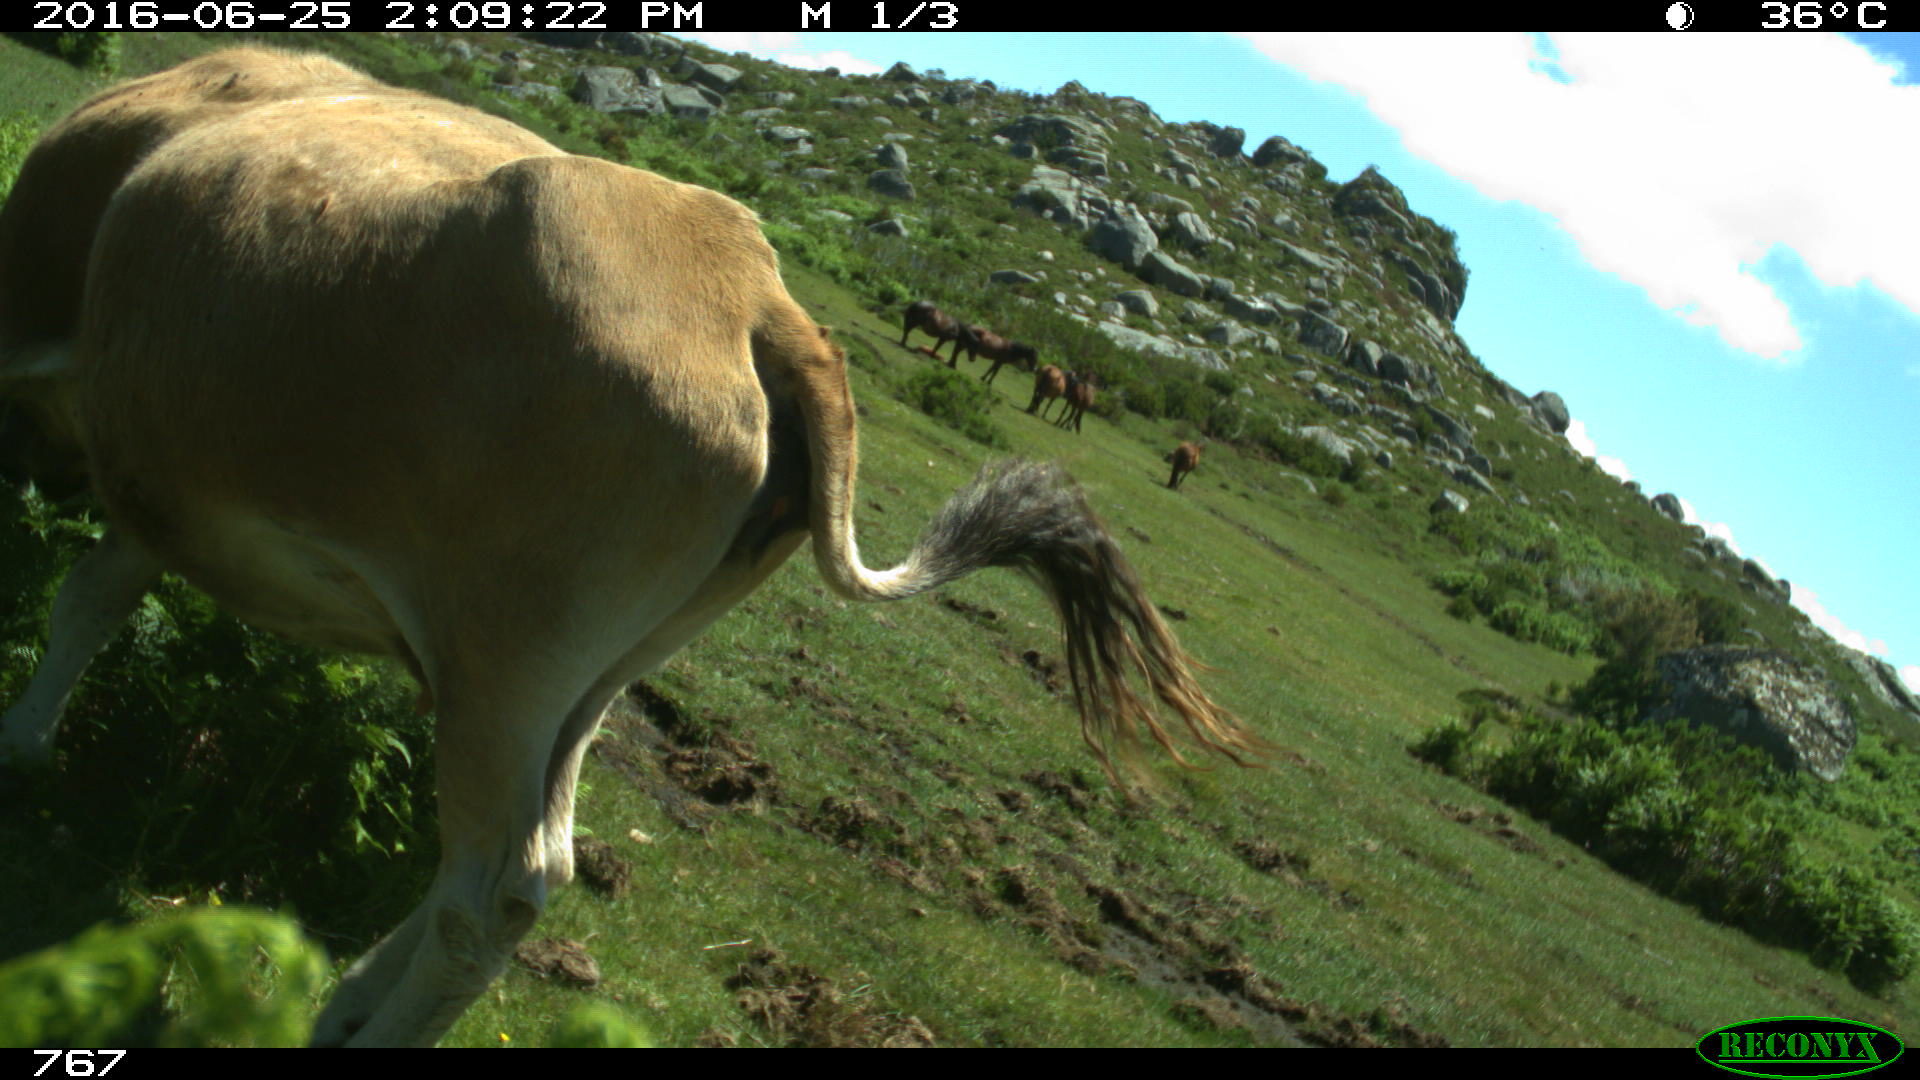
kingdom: Animalia
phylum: Chordata
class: Mammalia
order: Artiodactyla
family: Bovidae
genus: Bos
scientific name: Bos taurus
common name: Domesticated cattle
